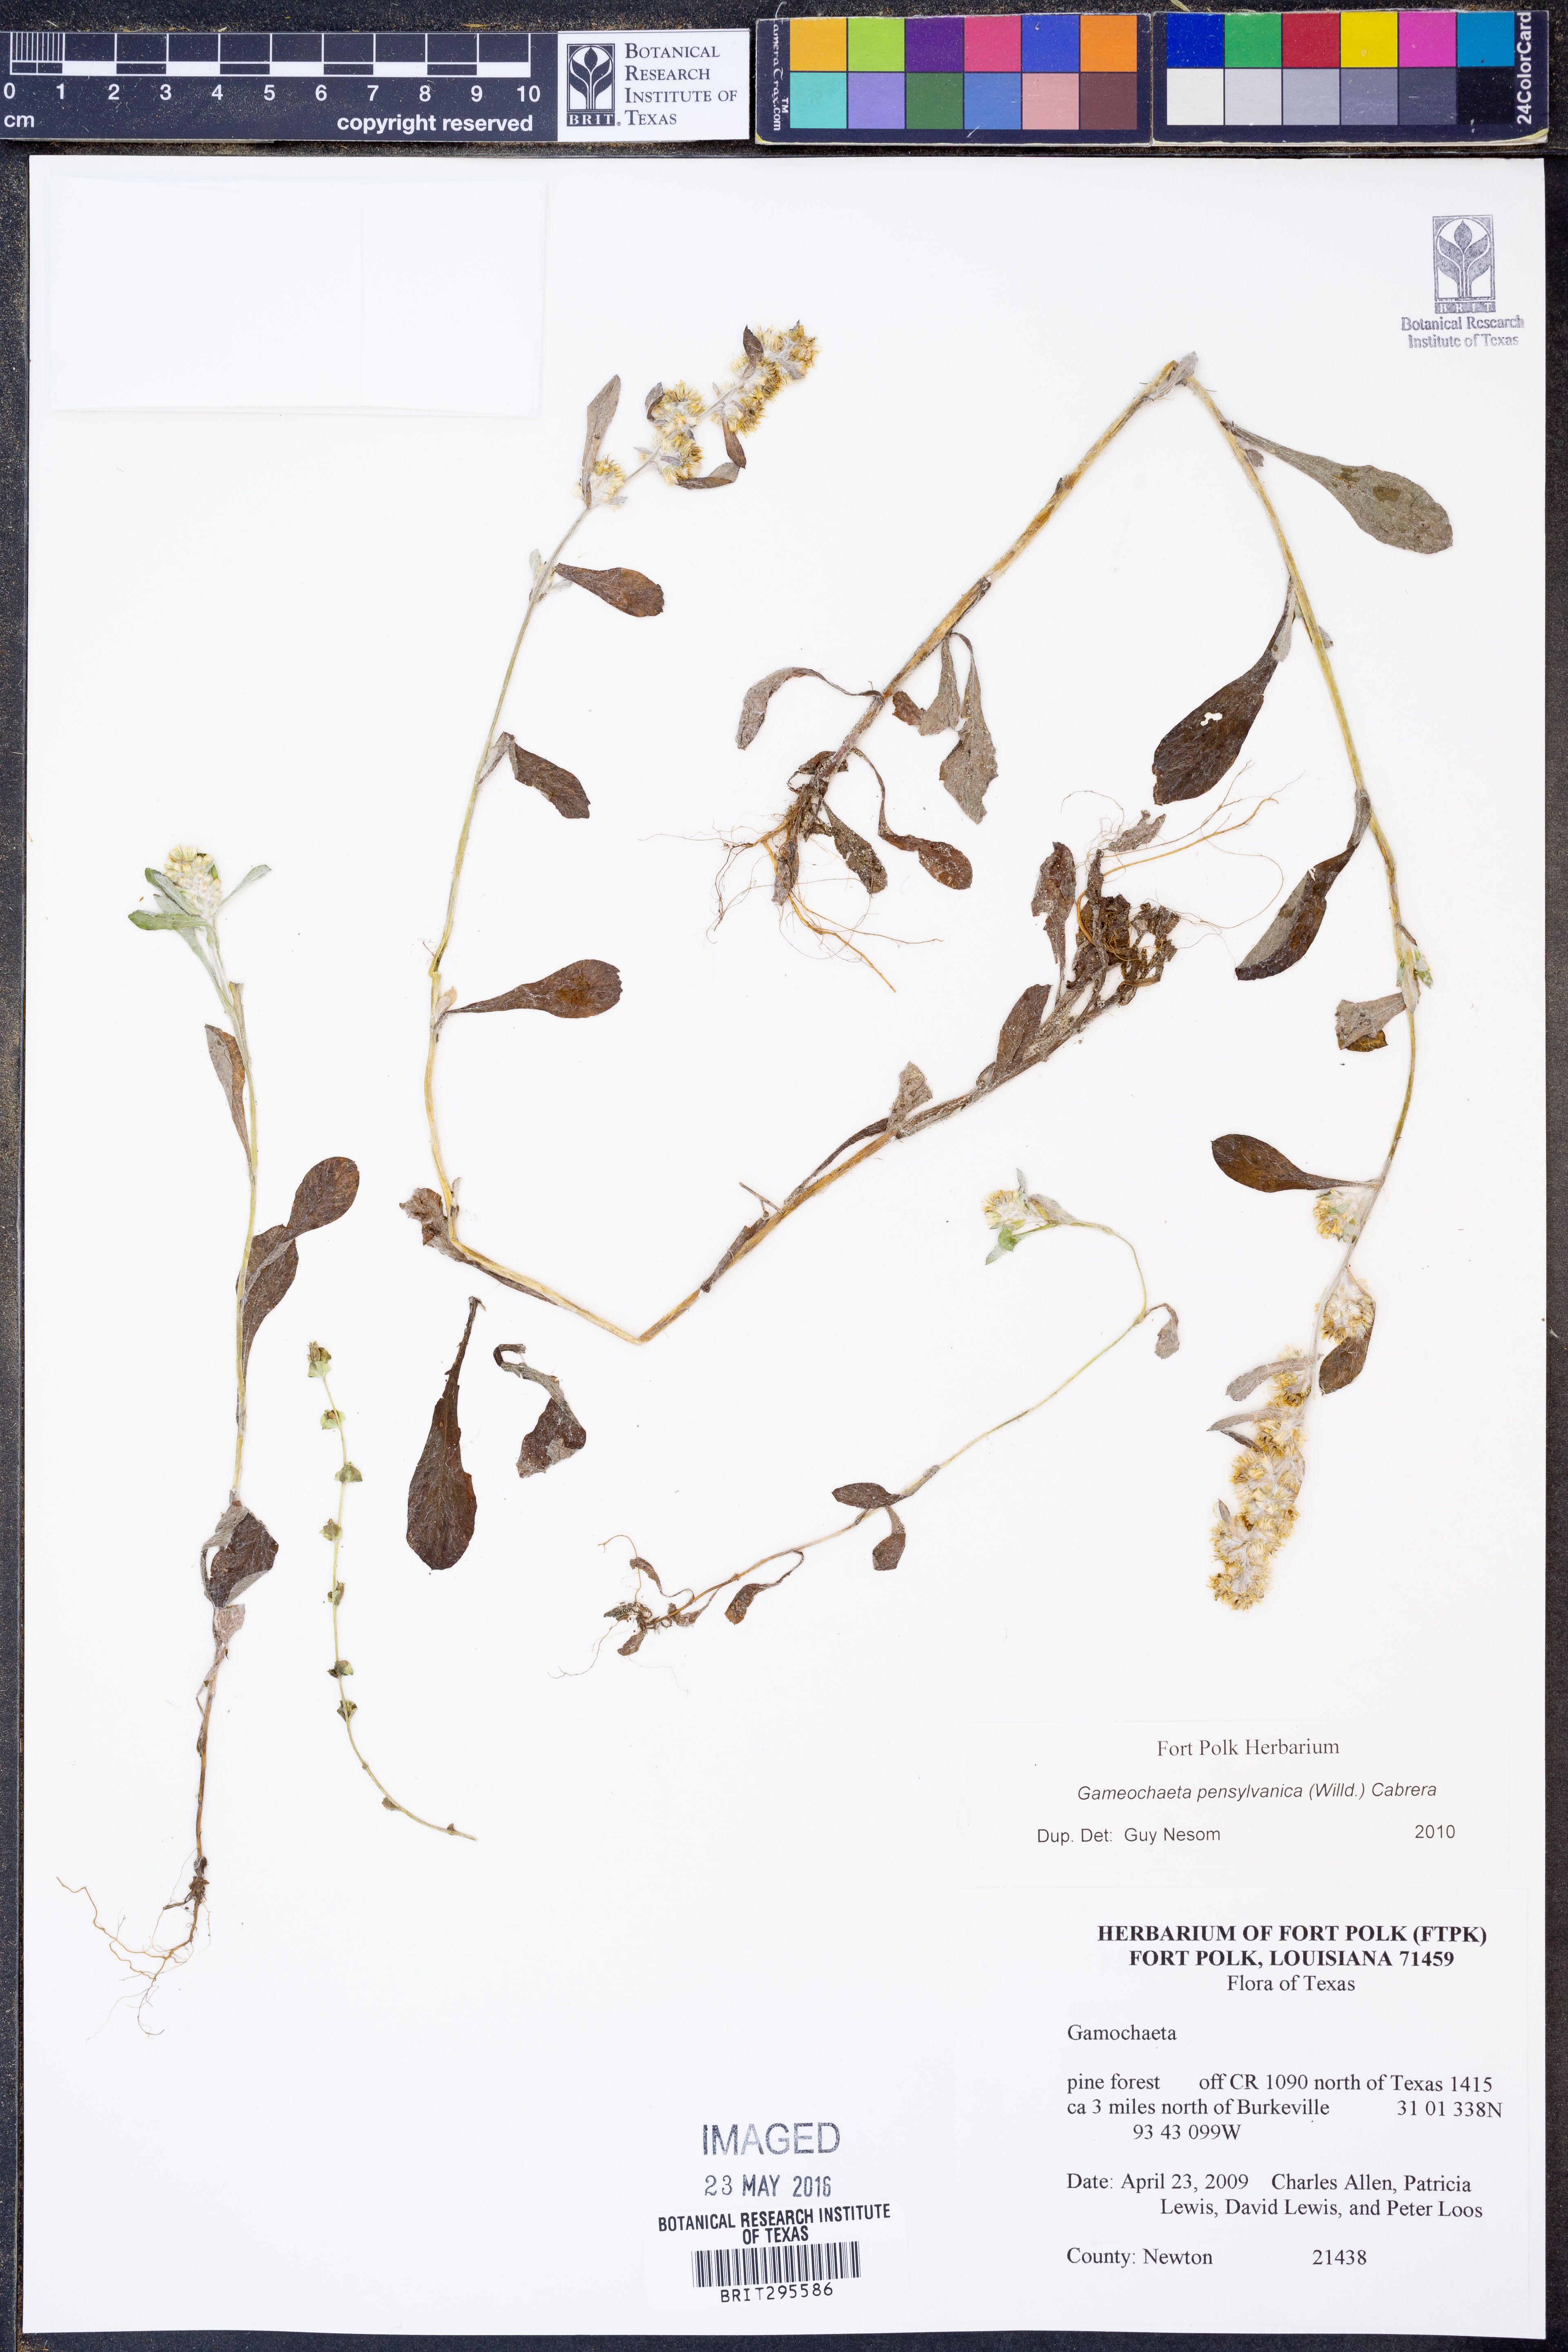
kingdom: Plantae
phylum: Tracheophyta
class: Magnoliopsida
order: Asterales
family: Asteraceae
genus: Gamochaeta
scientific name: Gamochaeta pensylvanica
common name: Pennsylvania everlasting
